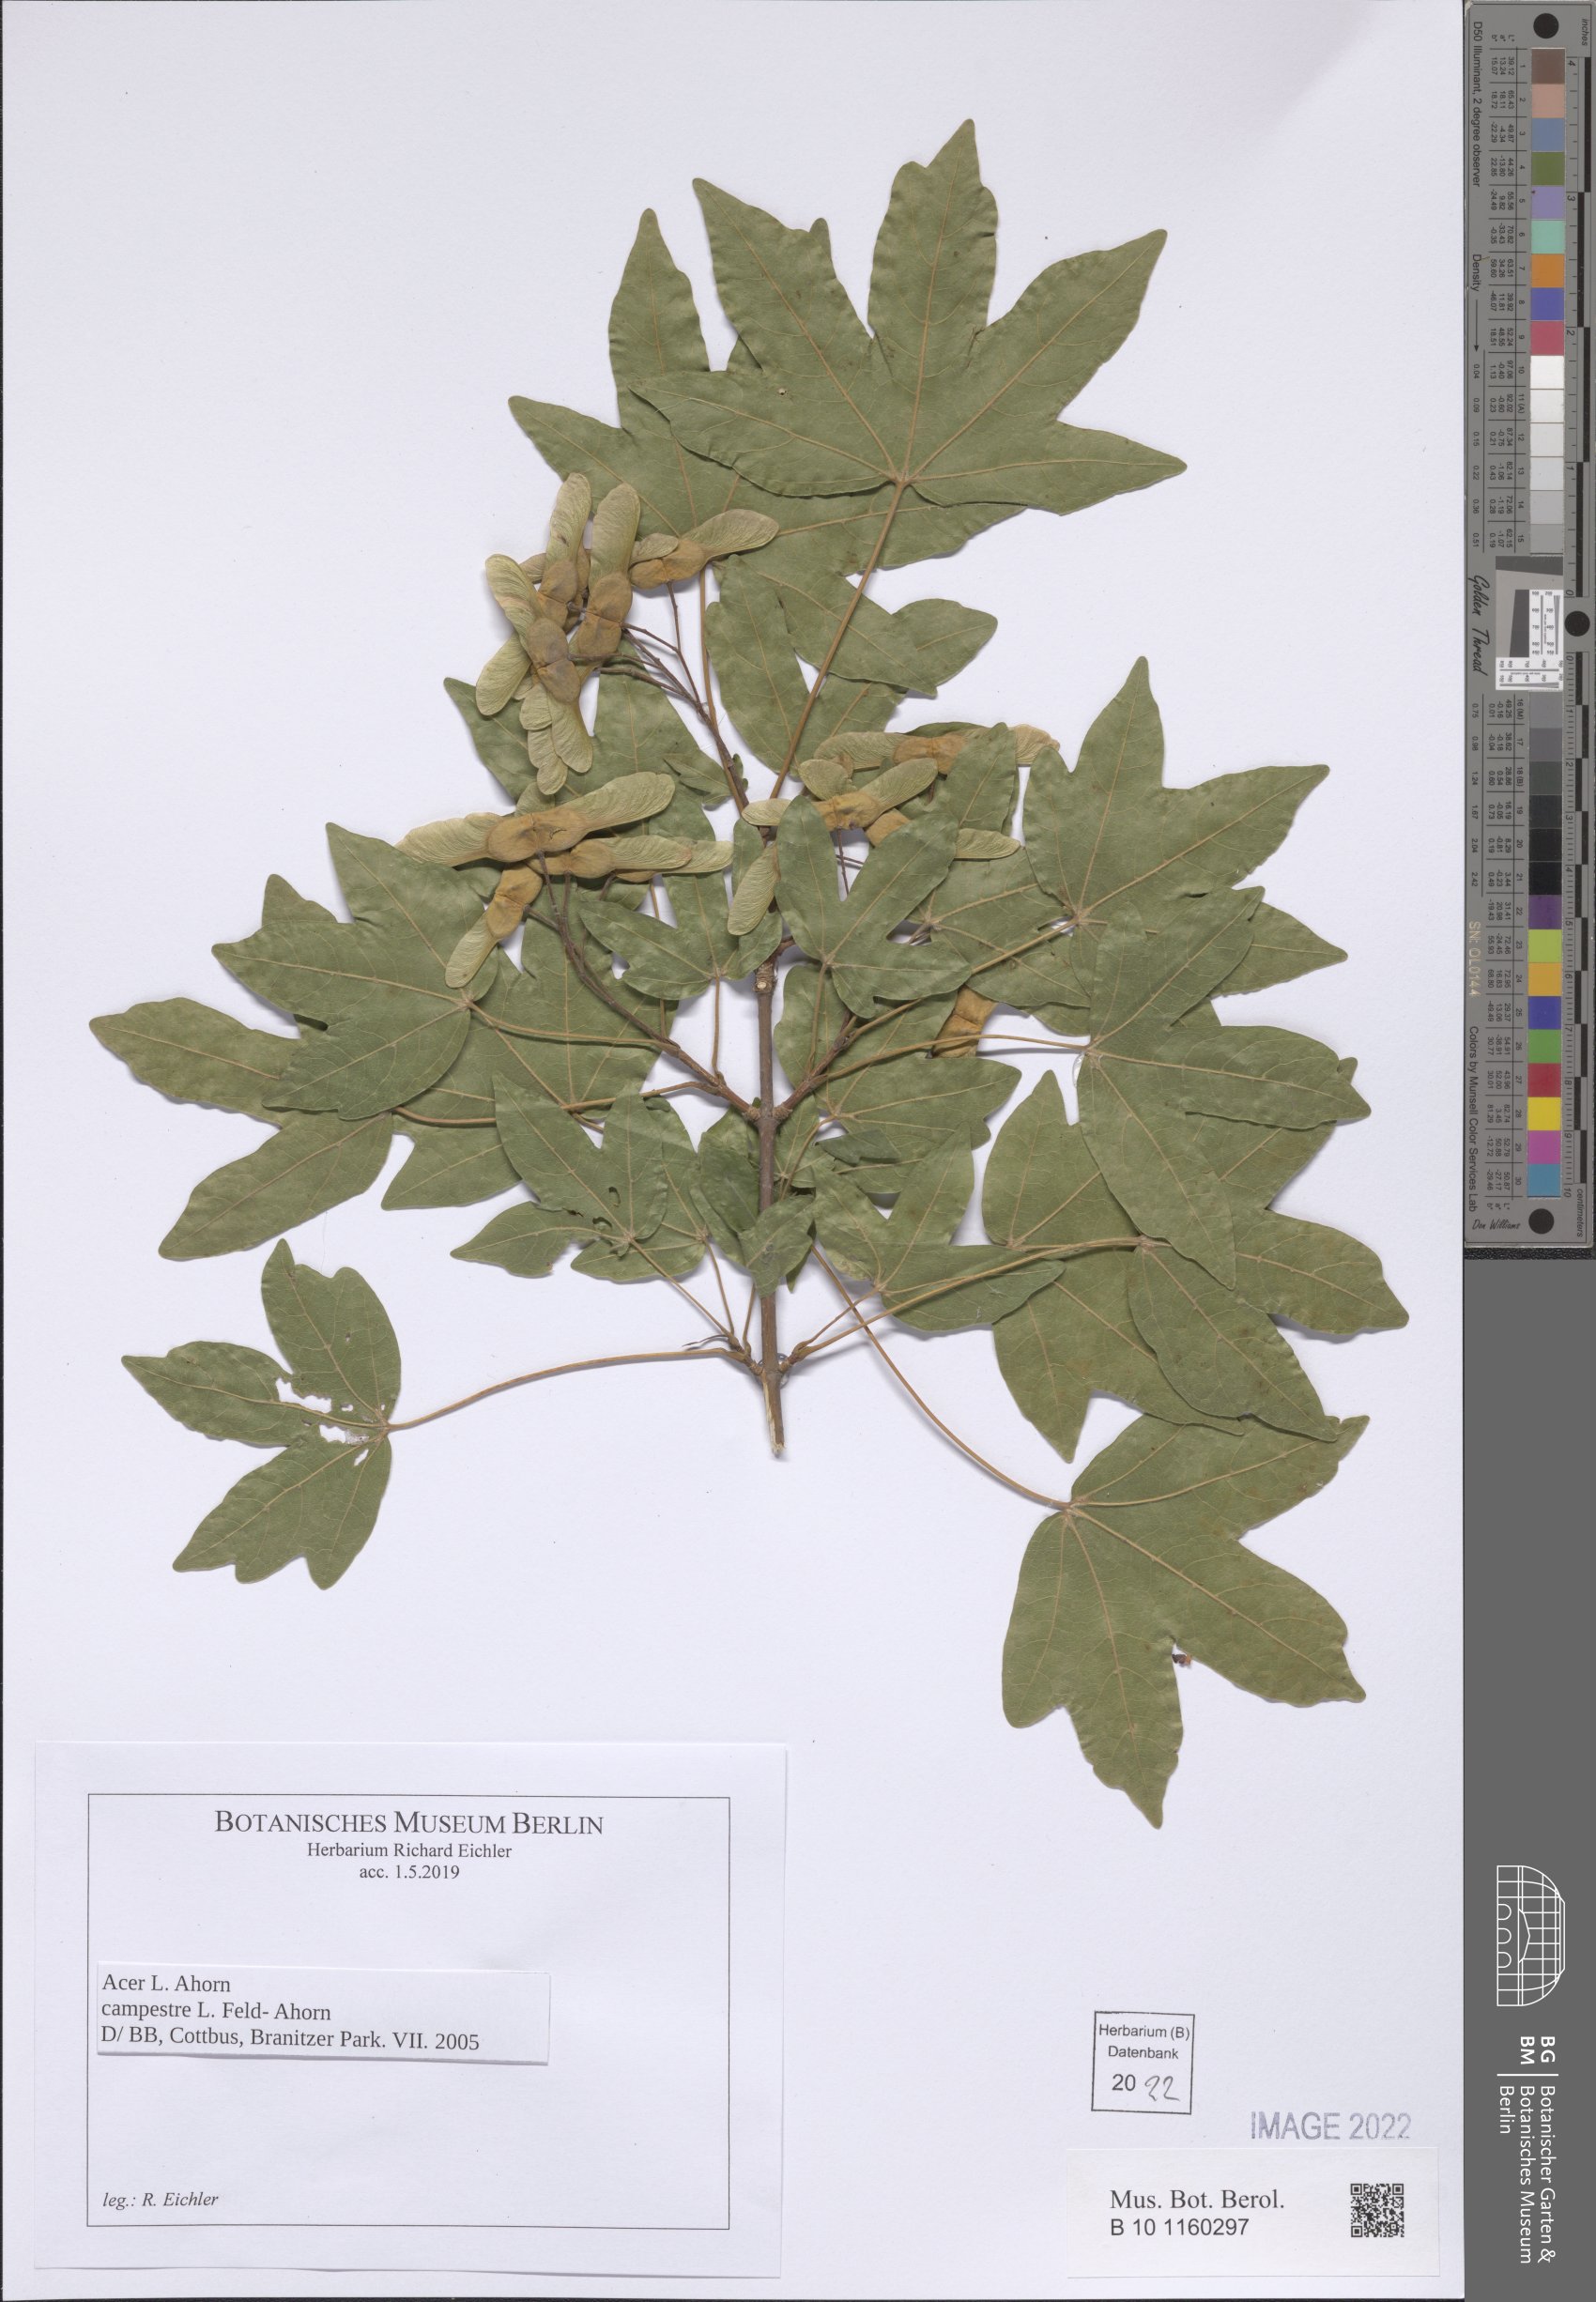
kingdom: Plantae
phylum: Tracheophyta
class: Magnoliopsida
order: Sapindales
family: Sapindaceae
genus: Acer
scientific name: Acer campestre
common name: Field maple
